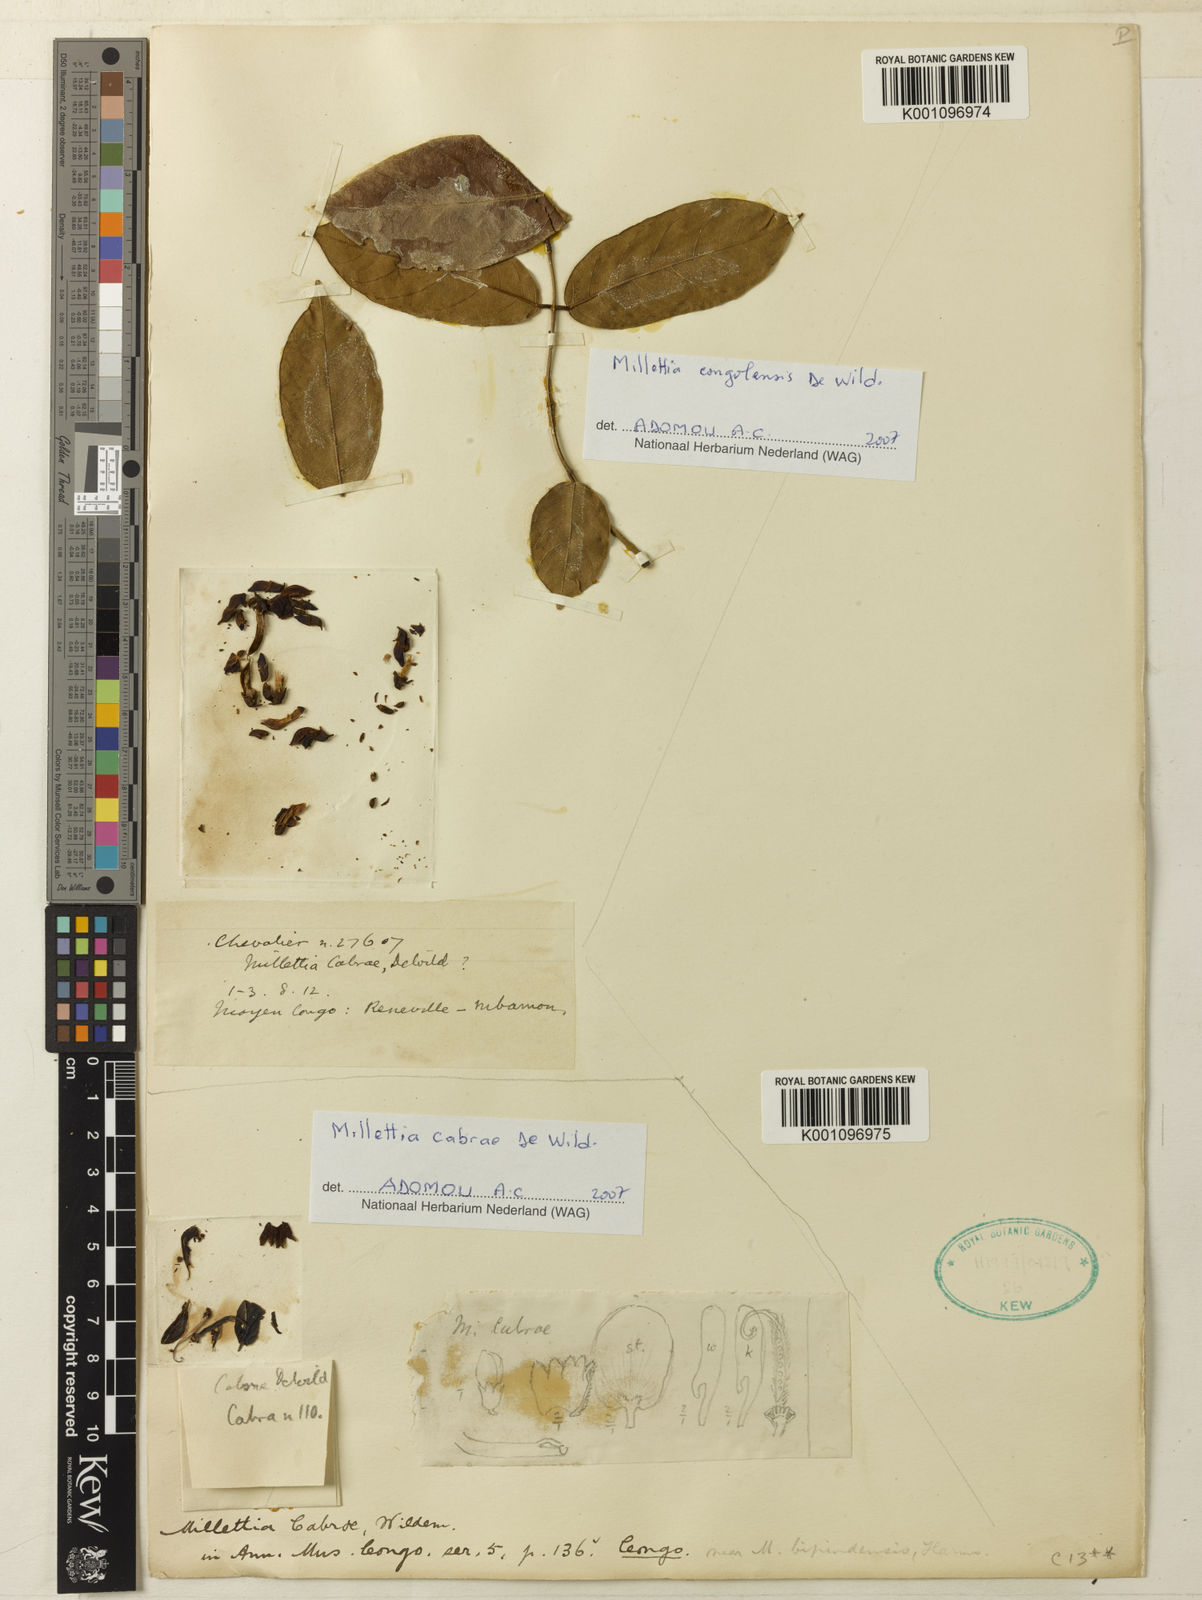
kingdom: Plantae
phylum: Tracheophyta
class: Magnoliopsida
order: Fabales
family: Fabaceae
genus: Millettia
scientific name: Millettia cabrae
